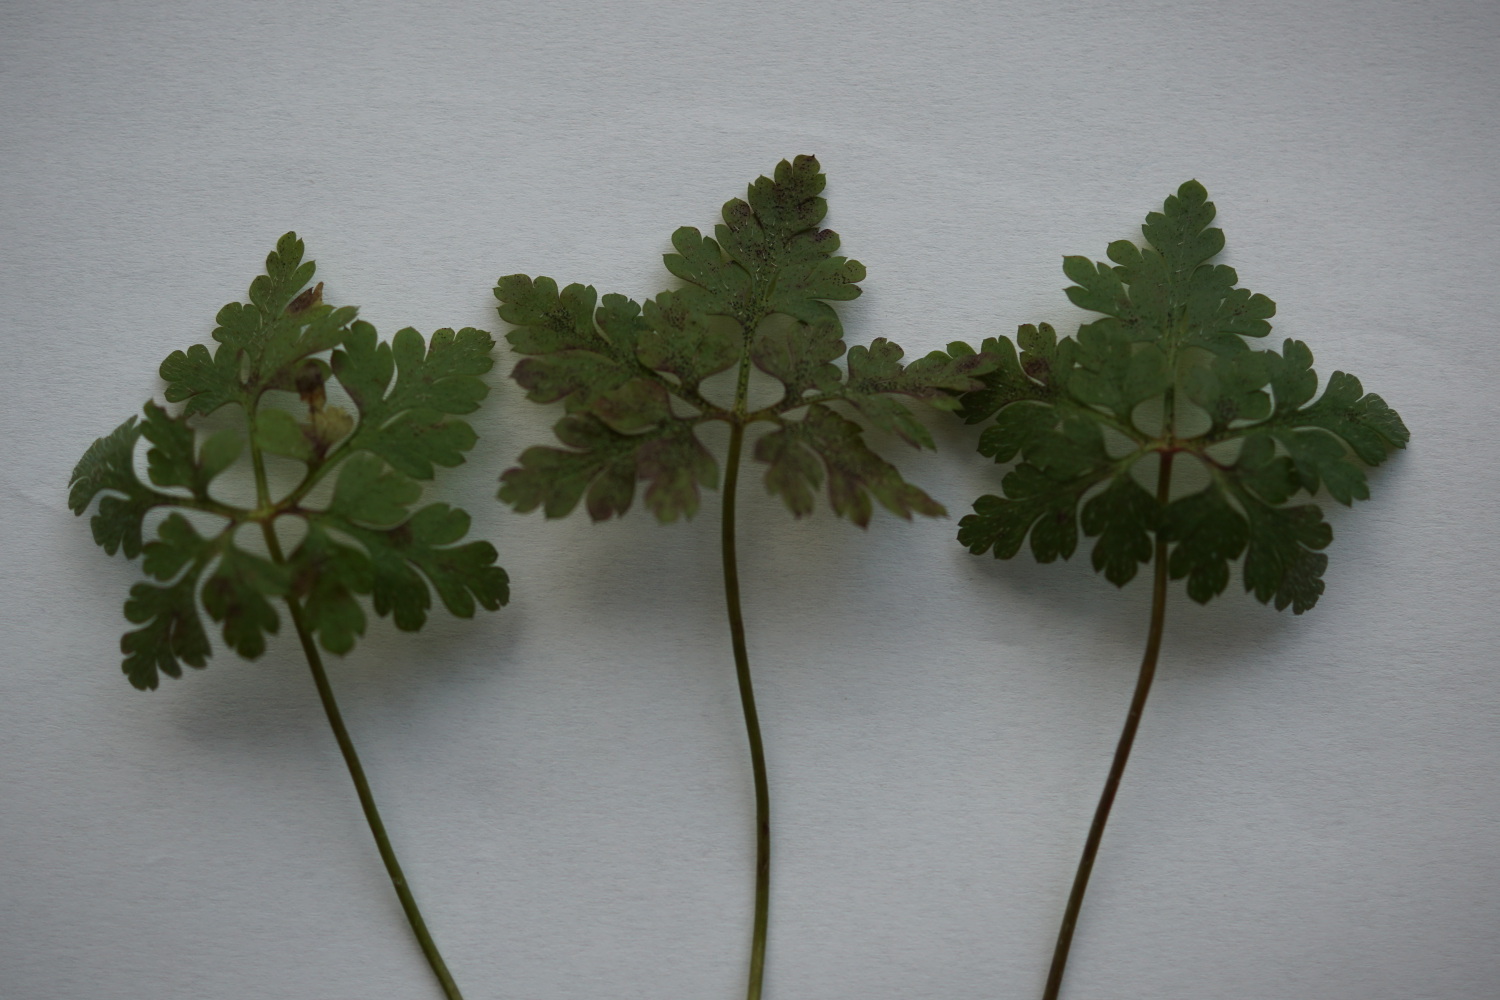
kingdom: Fungi
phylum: Ascomycota
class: Dothideomycetes
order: Venturiales
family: Venturiaceae
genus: Coleroa
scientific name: Coleroa robertiani
